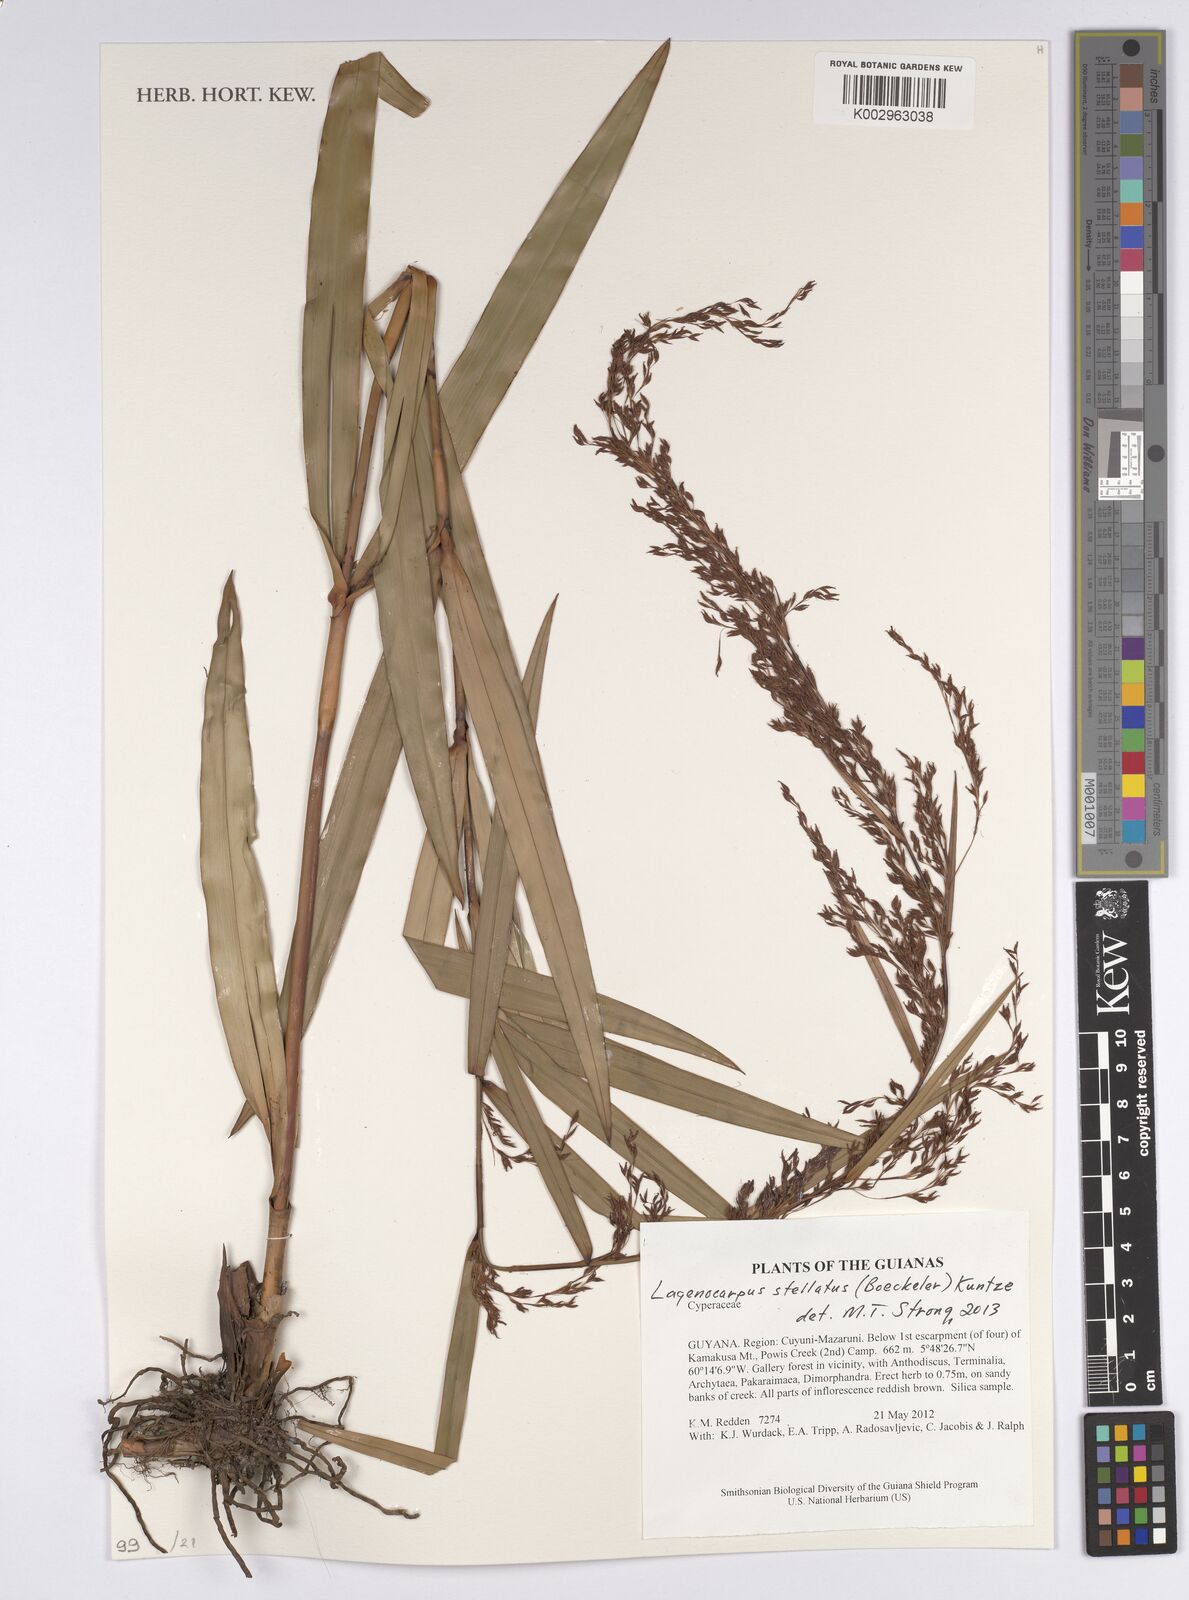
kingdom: Plantae
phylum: Tracheophyta
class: Liliopsida
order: Poales
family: Cyperaceae
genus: Didymiandrum
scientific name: Didymiandrum stellatum
